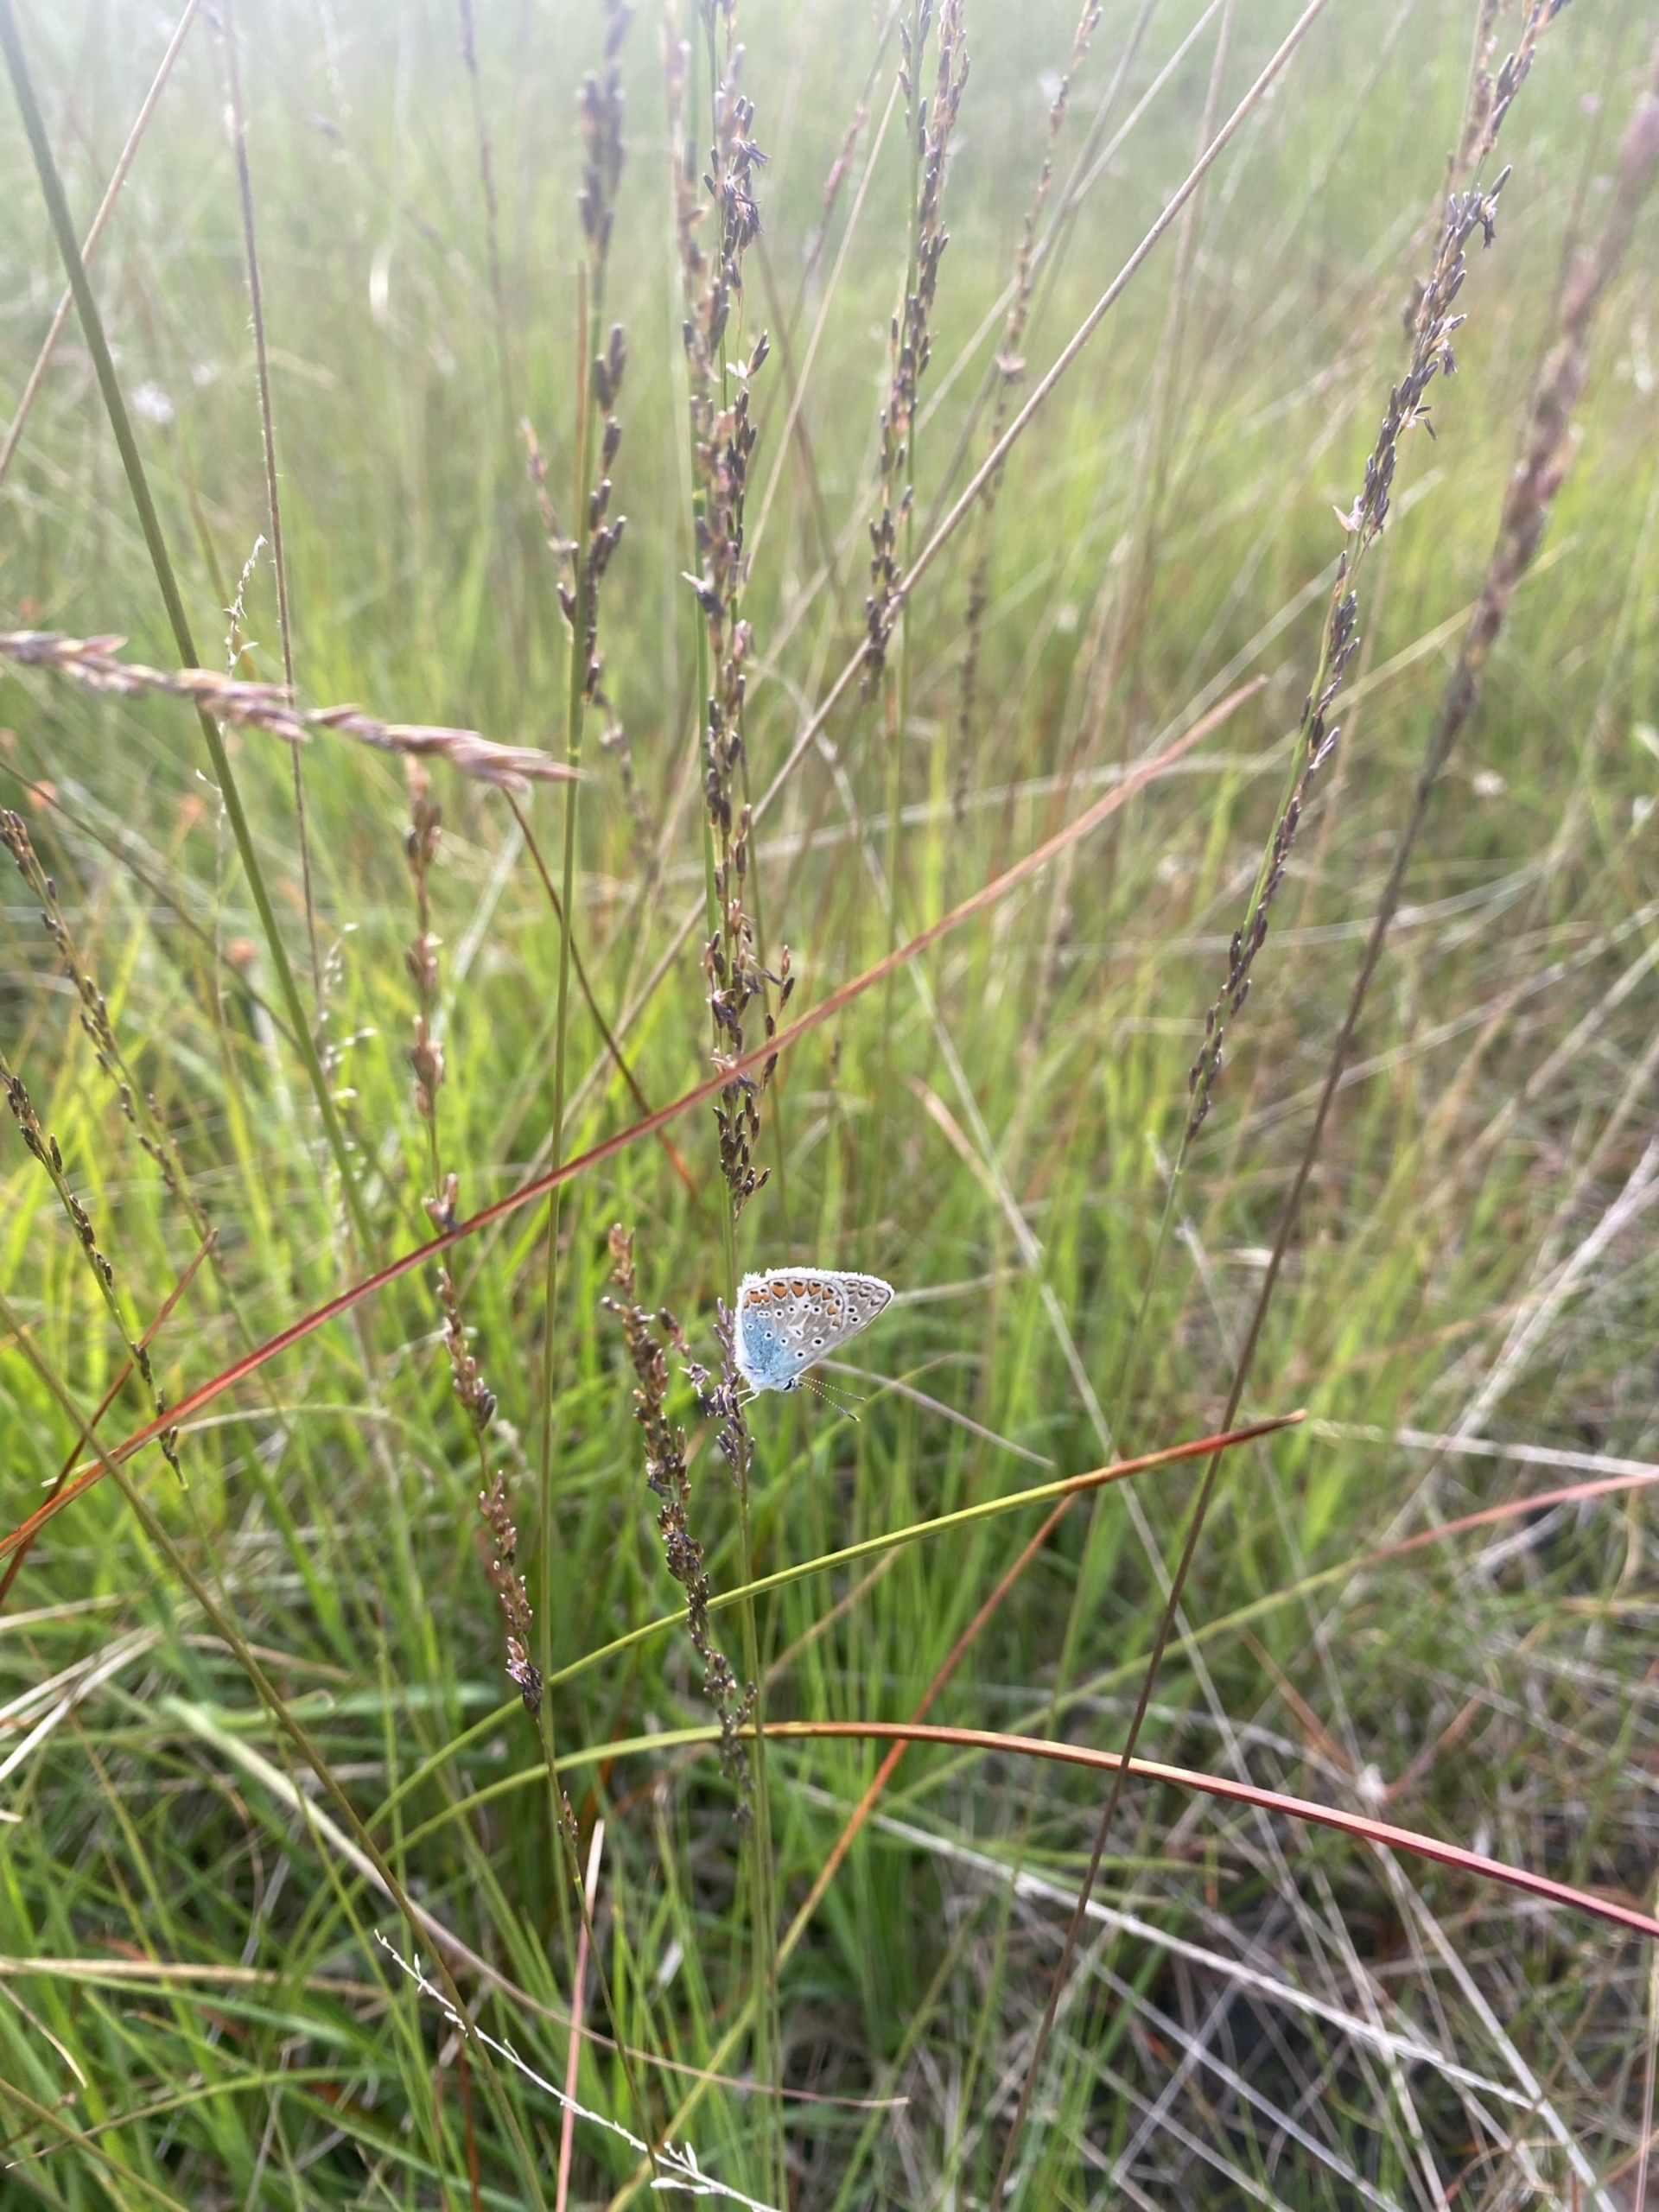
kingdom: Animalia
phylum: Arthropoda
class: Insecta
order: Lepidoptera
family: Lycaenidae
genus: Polyommatus
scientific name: Polyommatus icarus
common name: Almindelig blåfugl
